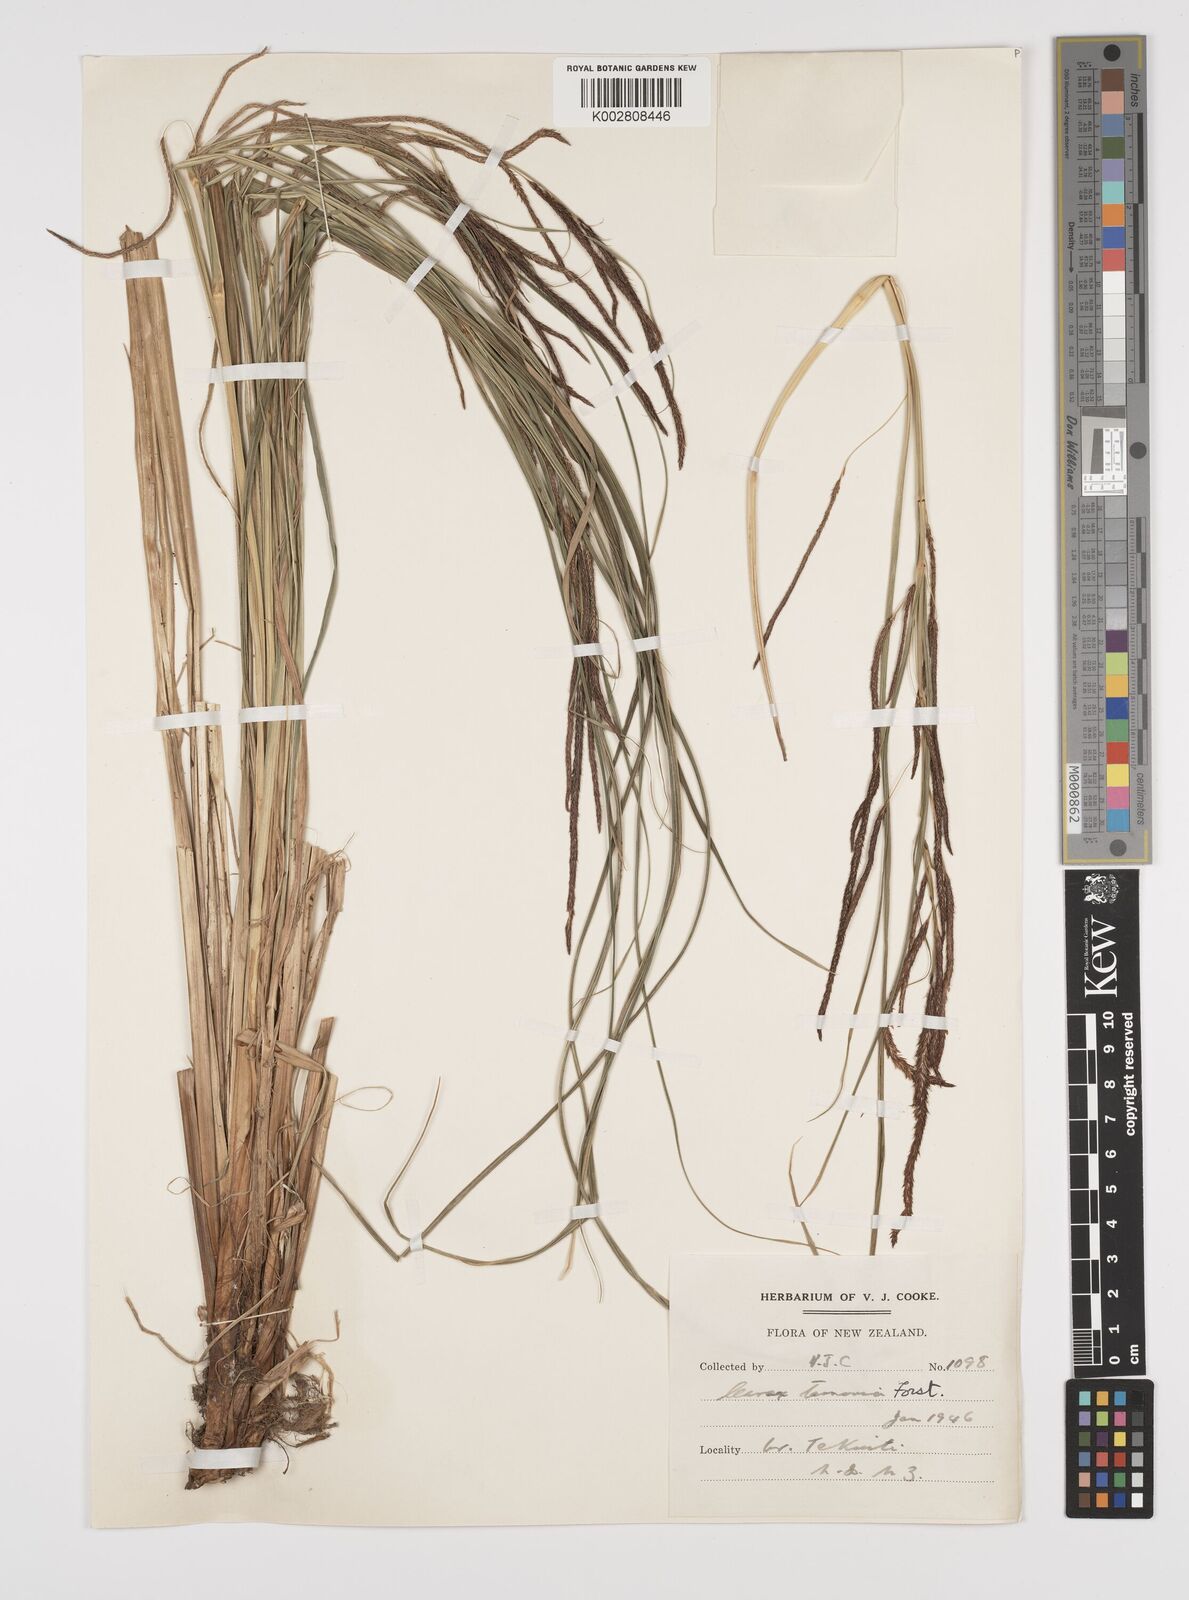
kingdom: Plantae
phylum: Tracheophyta
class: Liliopsida
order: Poales
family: Cyperaceae
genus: Carex
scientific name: Carex coriacea
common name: Rautahi
